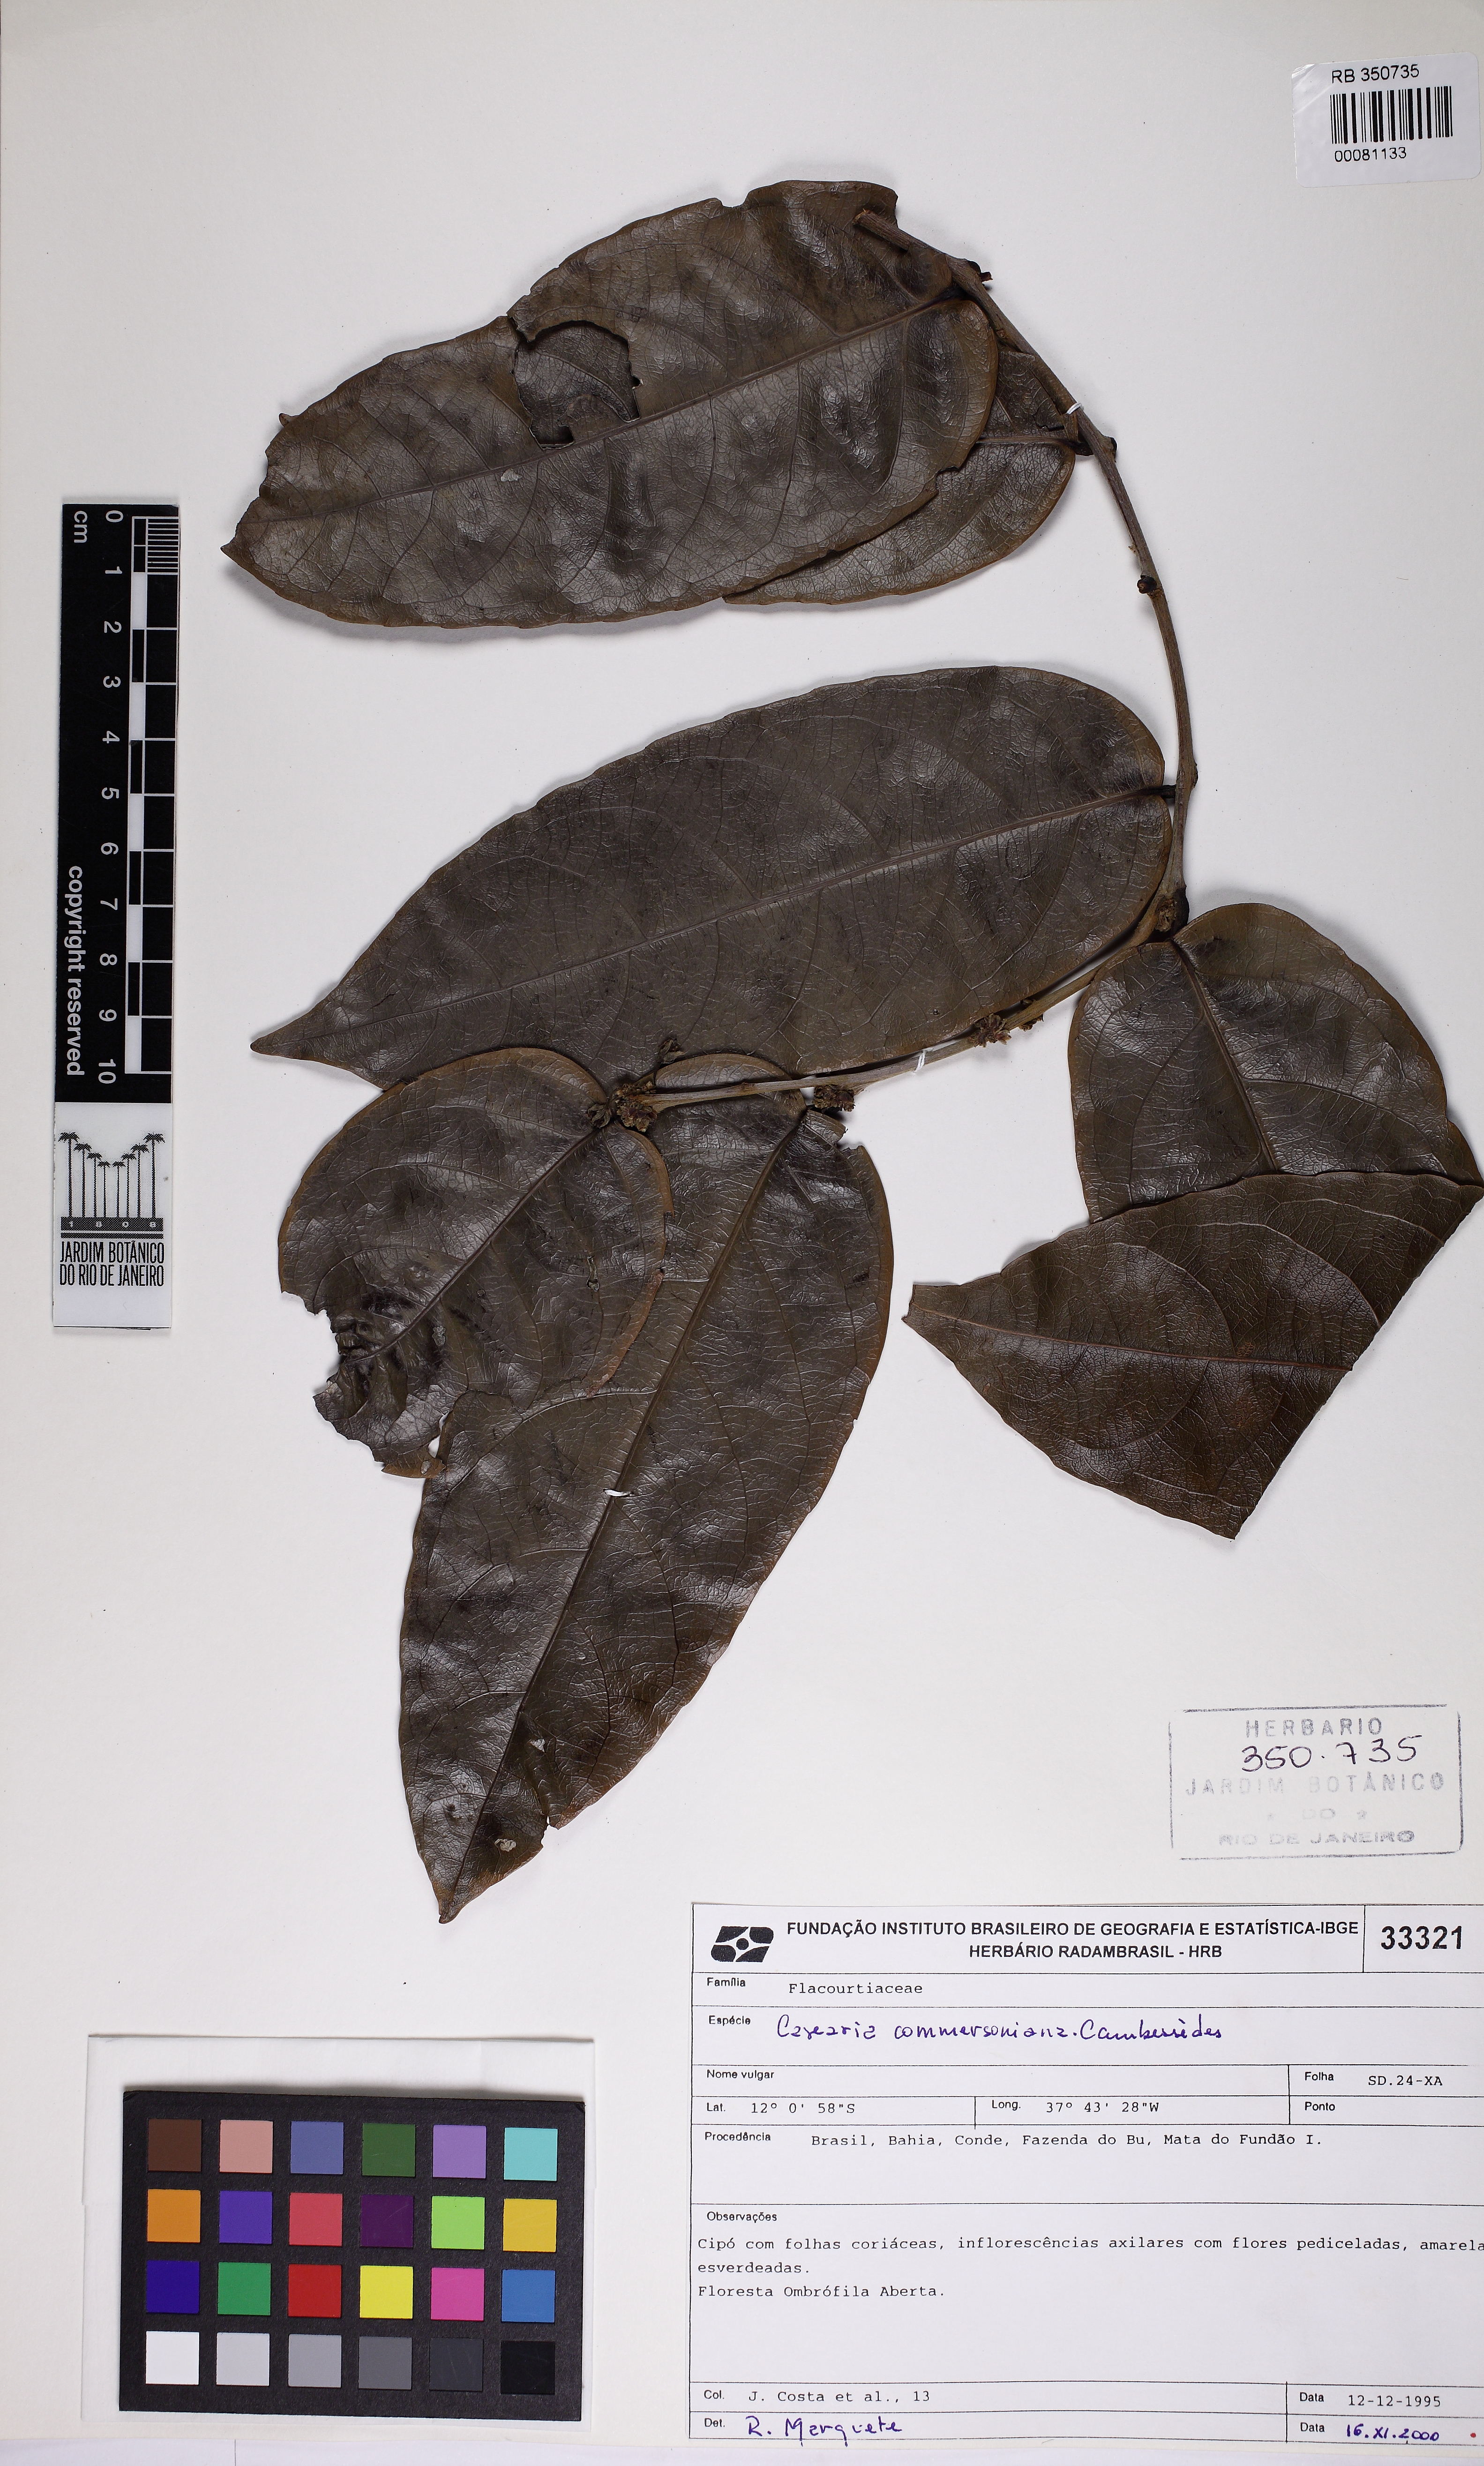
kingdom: Plantae
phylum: Tracheophyta
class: Magnoliopsida
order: Malpighiales
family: Salicaceae
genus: Piparea
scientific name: Piparea dentata
